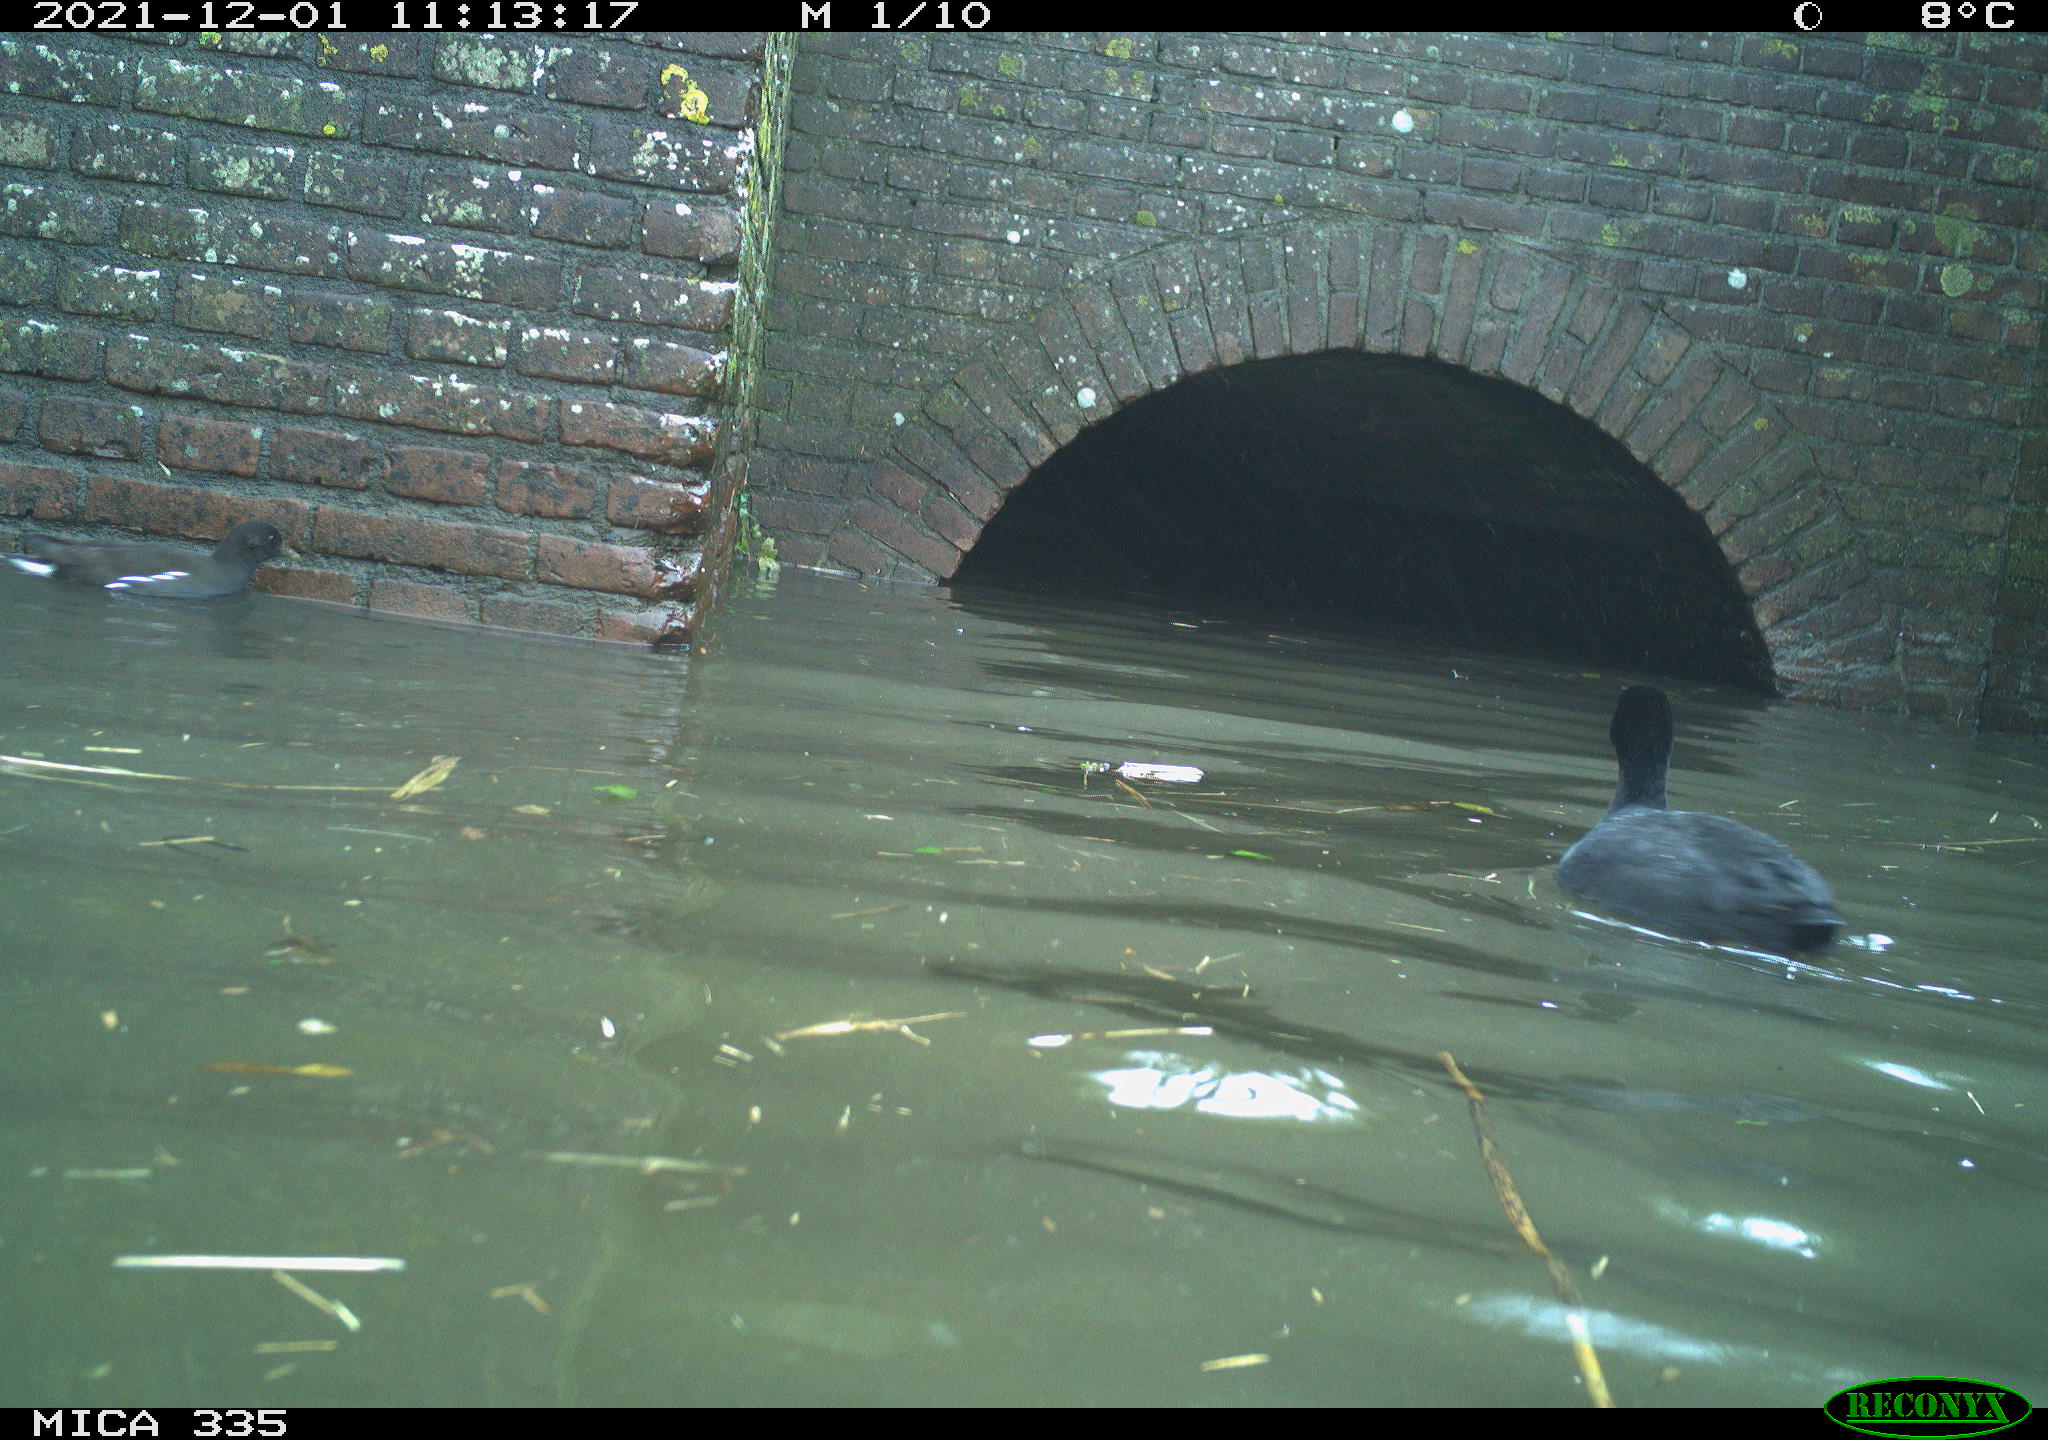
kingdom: Animalia
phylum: Chordata
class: Aves
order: Gruiformes
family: Rallidae
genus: Gallinula
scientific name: Gallinula chloropus
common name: Common moorhen
